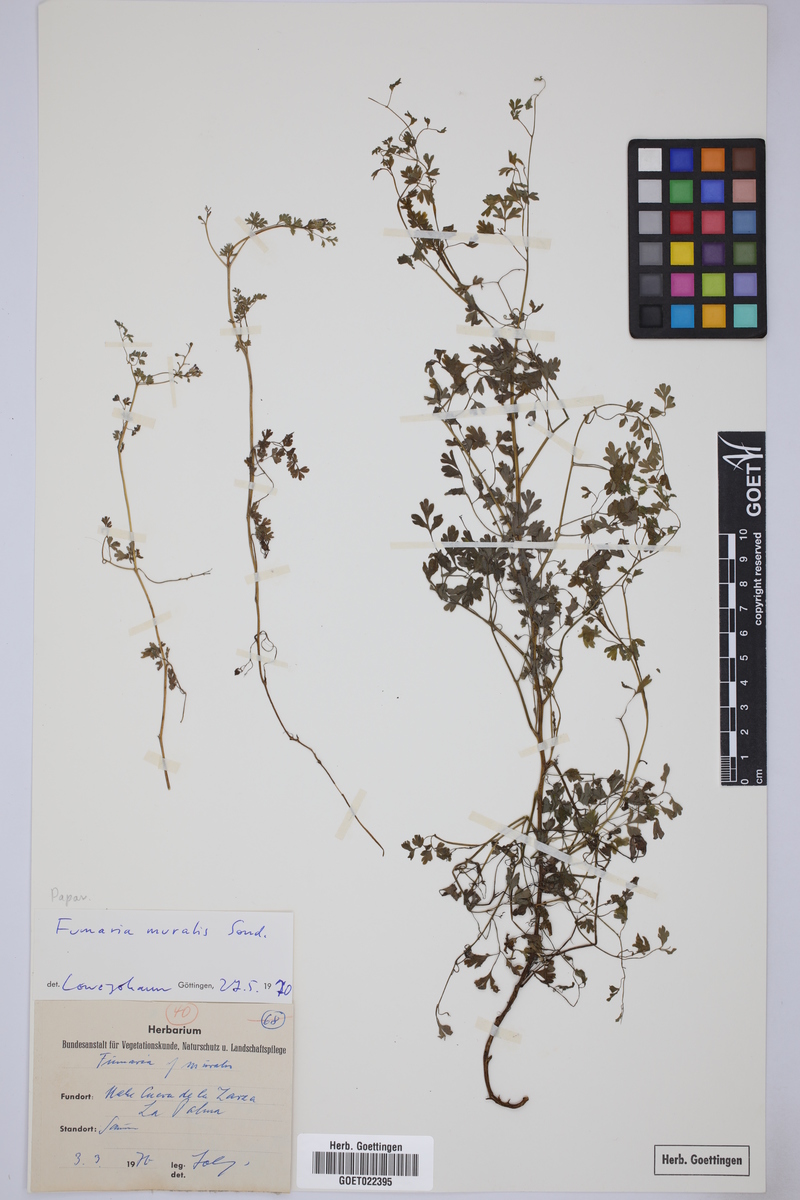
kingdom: Plantae
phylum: Tracheophyta
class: Magnoliopsida
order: Ranunculales
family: Papaveraceae
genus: Fumaria
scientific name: Fumaria muralis
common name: Common ramping-fumitory
